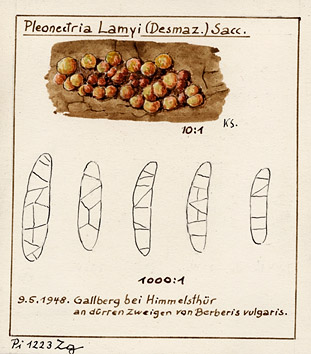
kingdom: Fungi
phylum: Ascomycota
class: Sordariomycetes
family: Thyridiaceae
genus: Thyronectria
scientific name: Thyronectria lamyi
